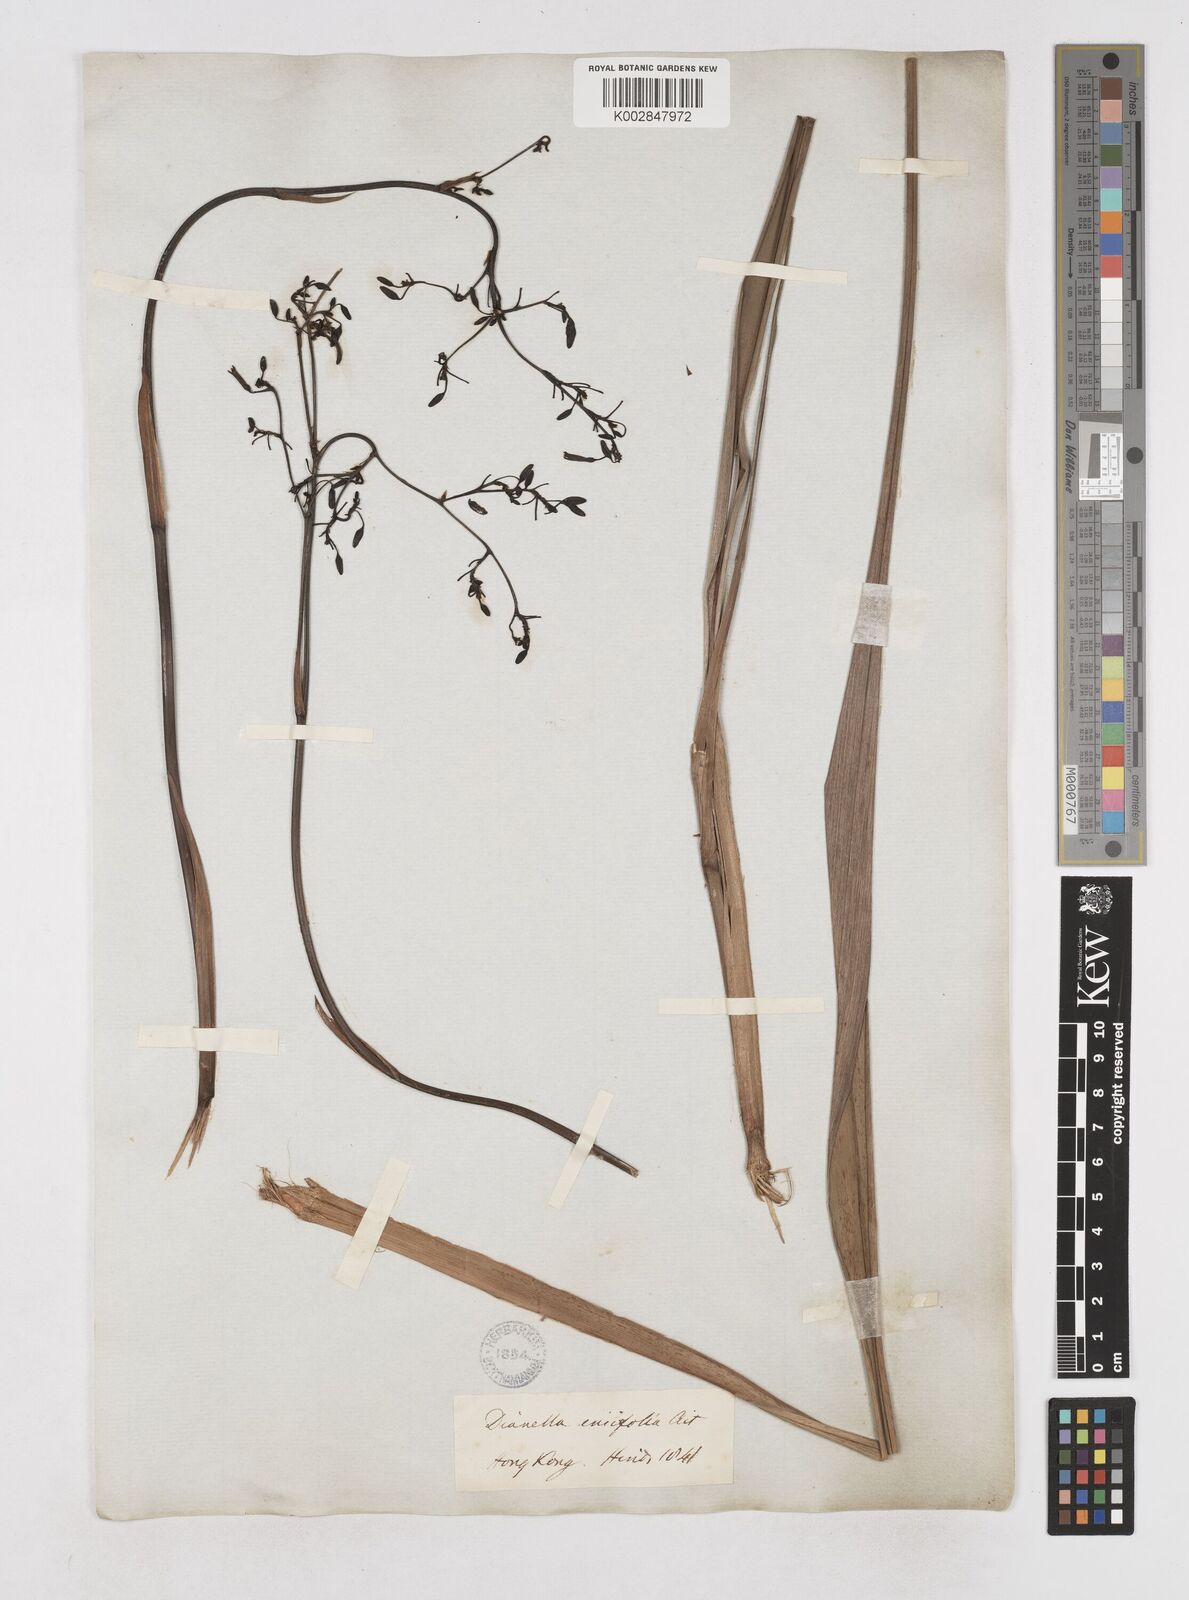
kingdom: Plantae
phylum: Tracheophyta
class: Liliopsida
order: Asparagales
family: Asphodelaceae
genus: Dianella
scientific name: Dianella ensifolia
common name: New zealand lilyplant
